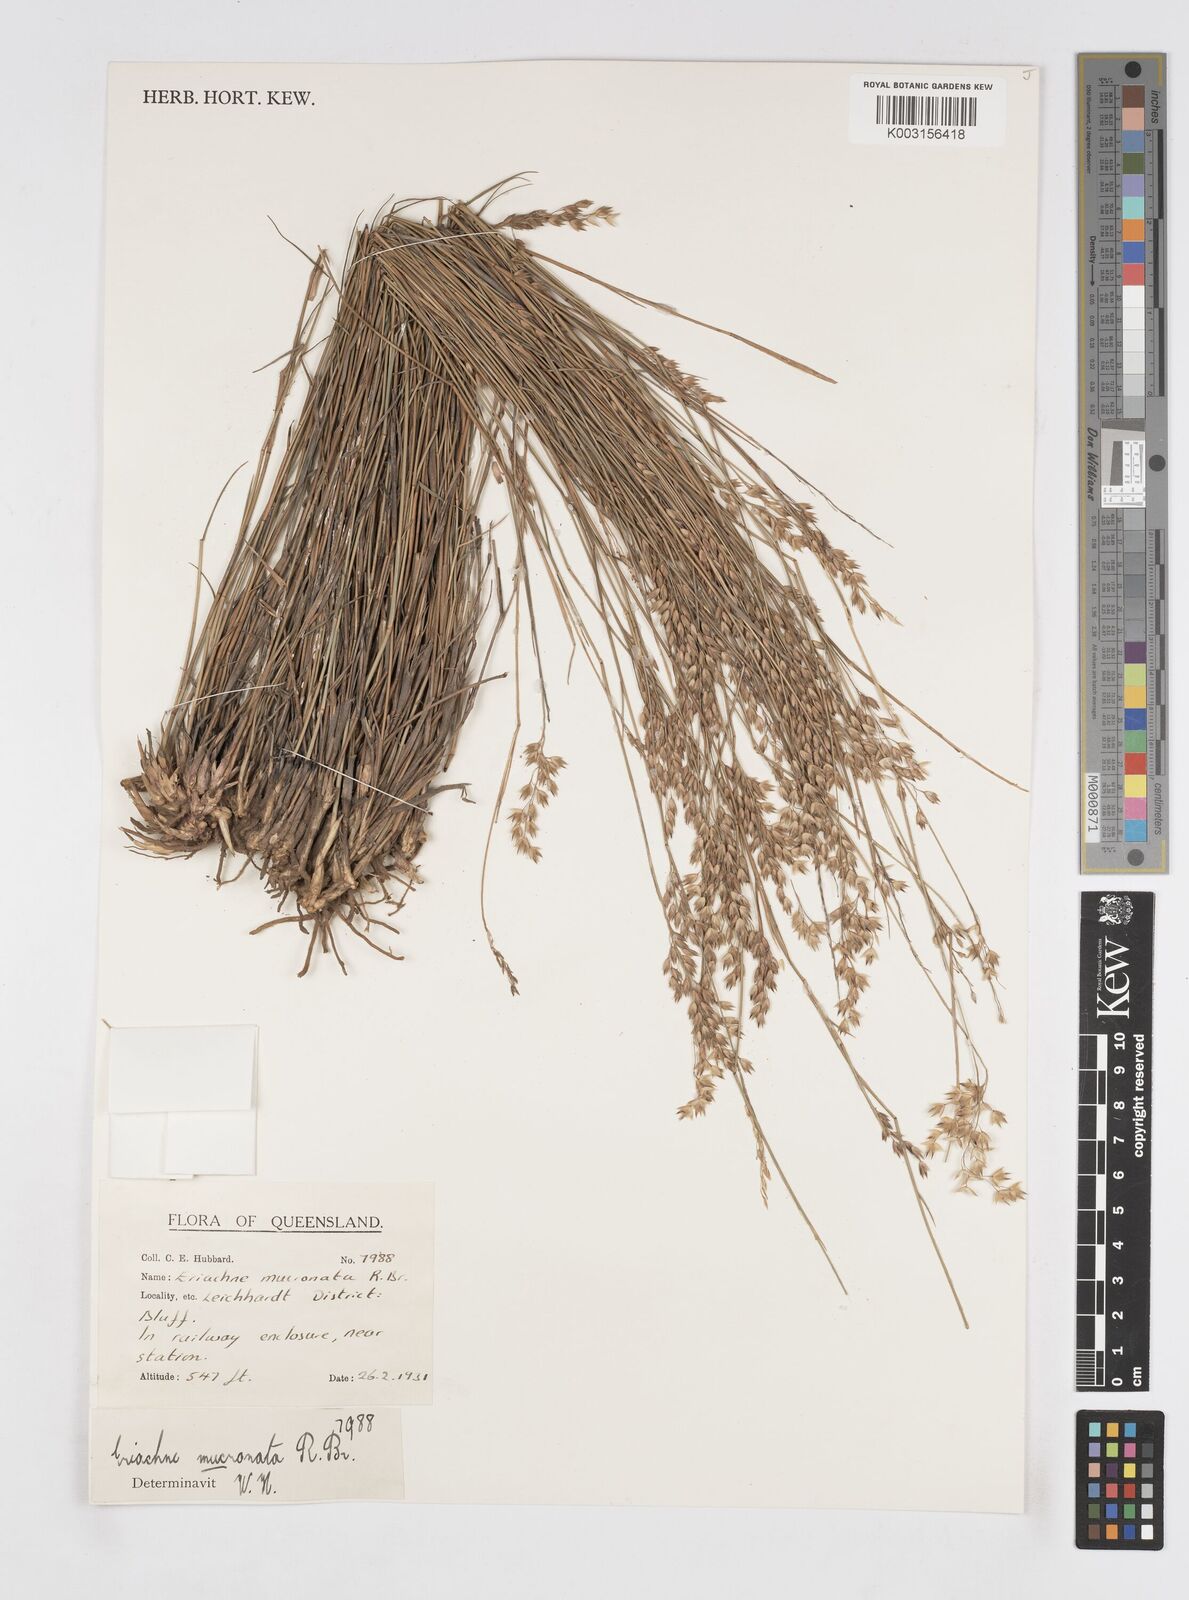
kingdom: Plantae
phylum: Tracheophyta
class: Liliopsida
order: Poales
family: Poaceae
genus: Eriachne
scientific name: Eriachne mucronata
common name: Mountain wanderrie grass
